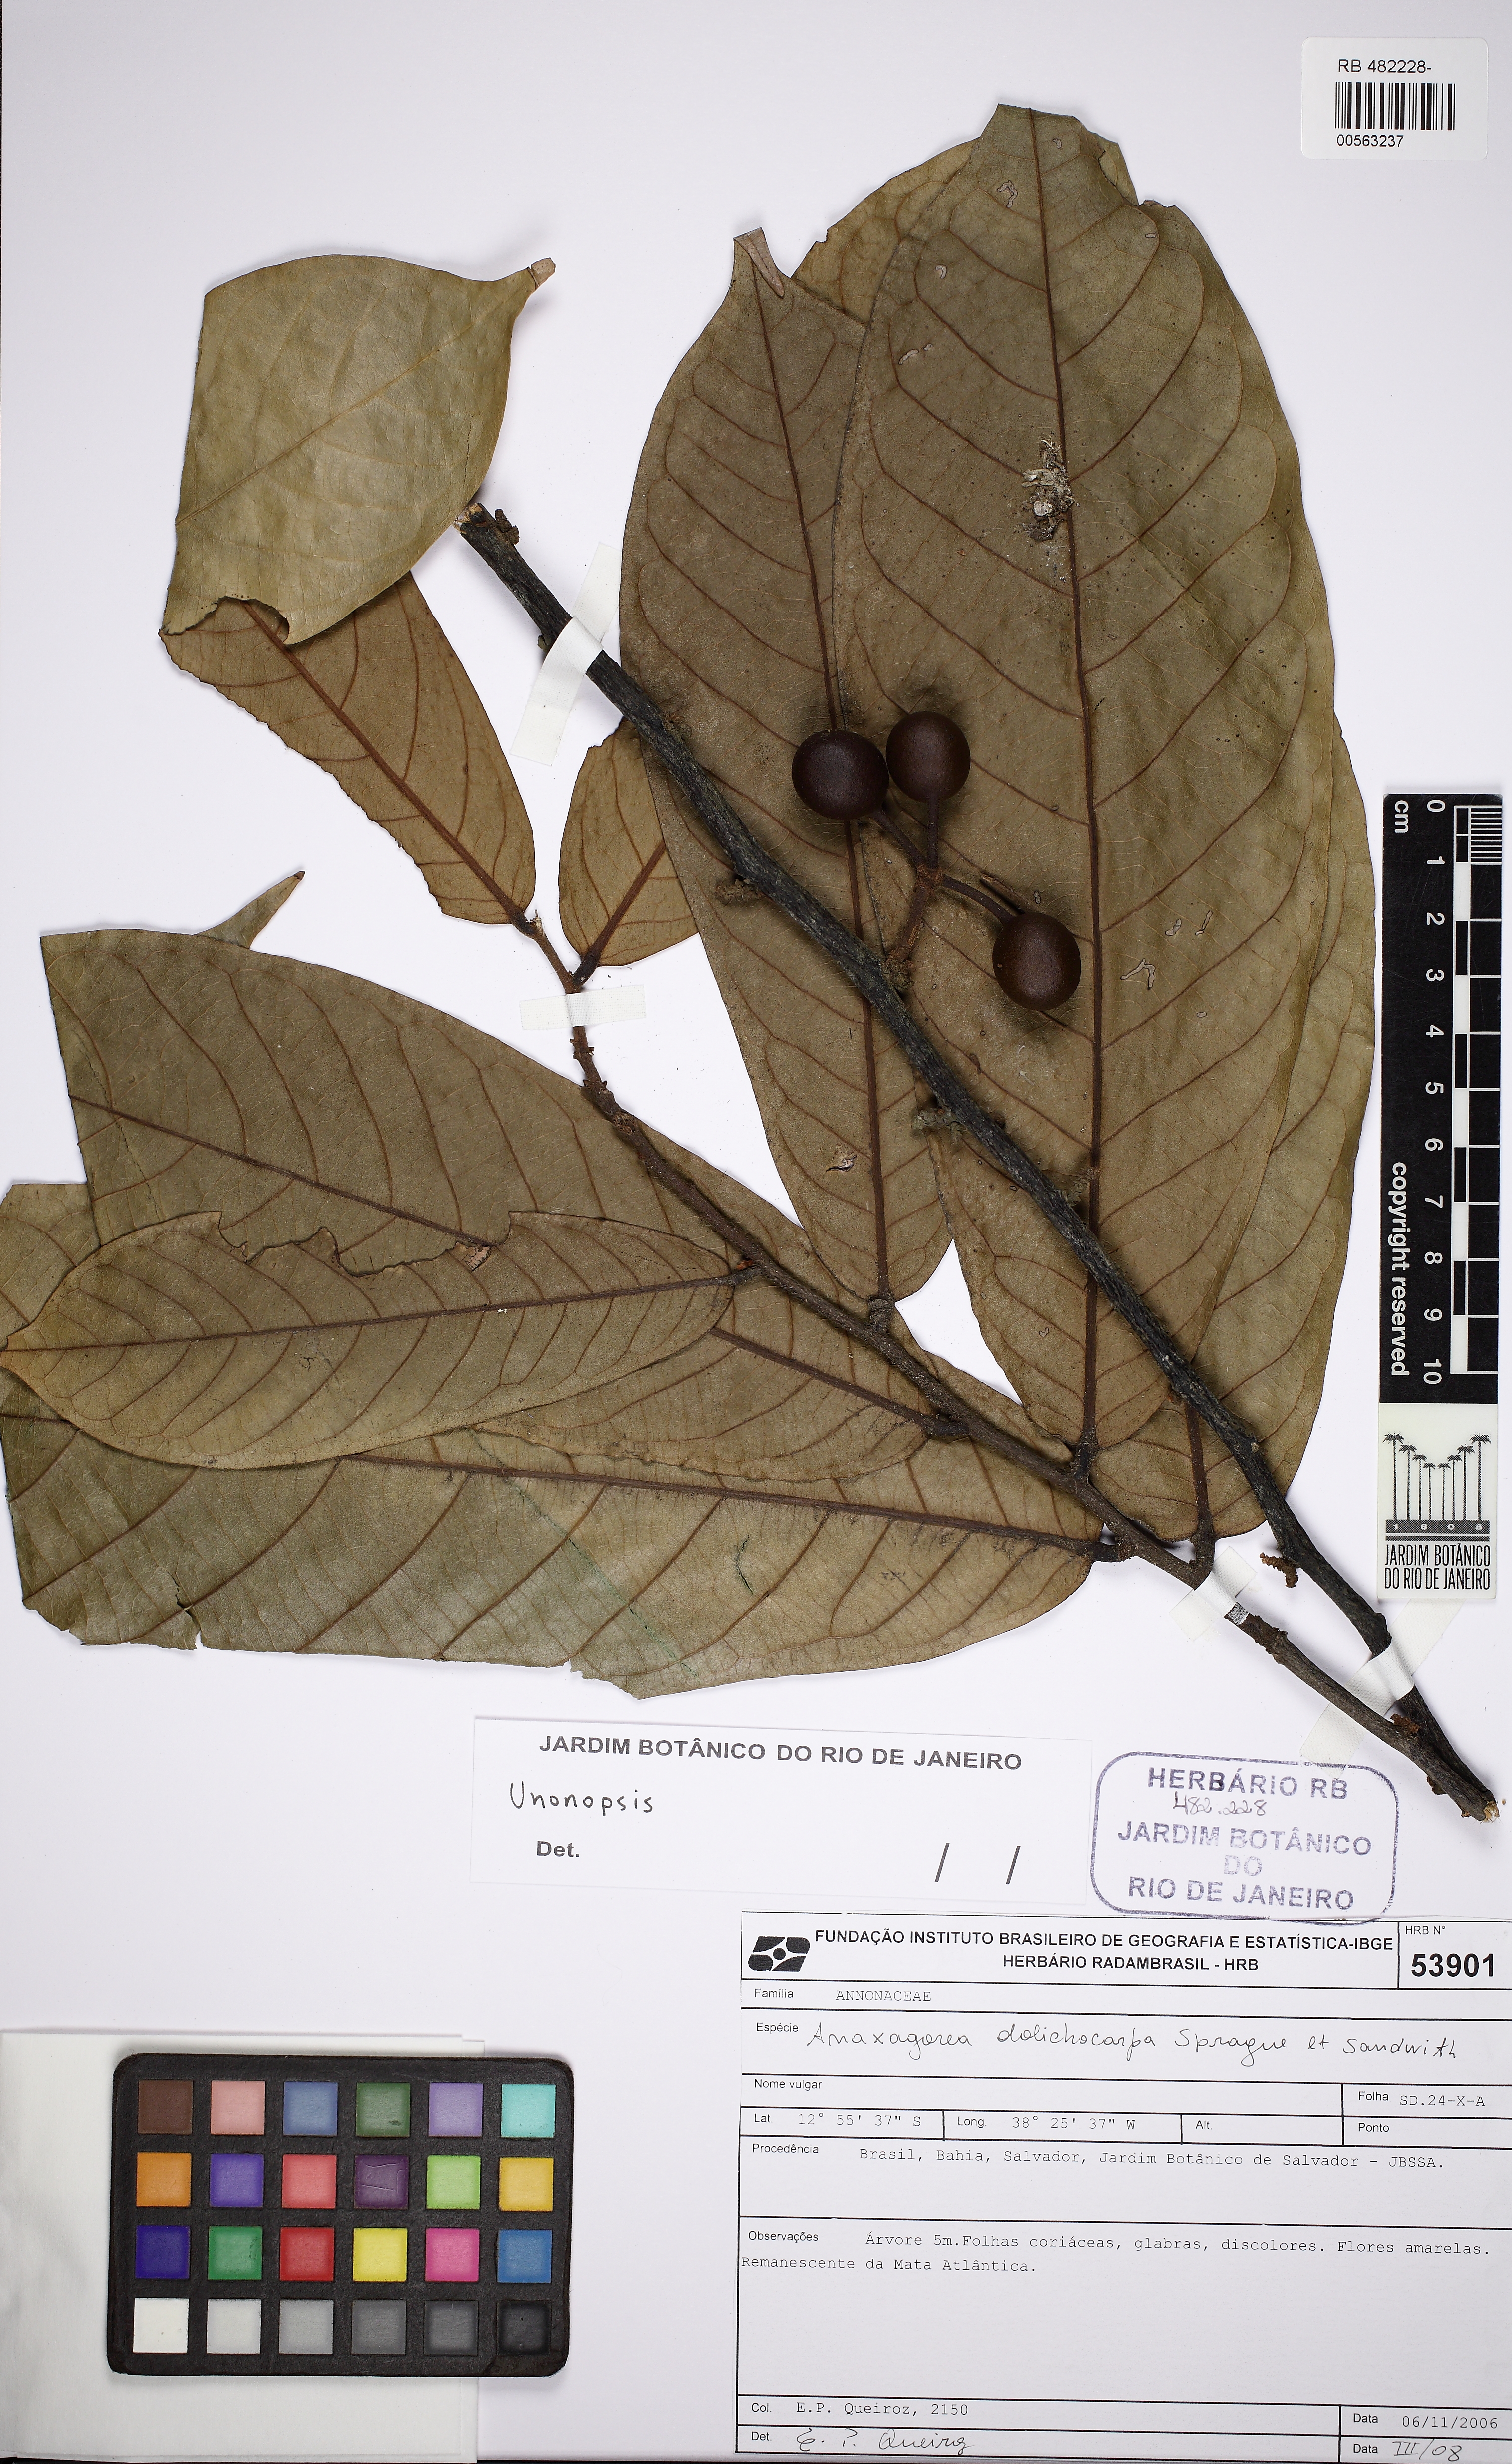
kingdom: Plantae
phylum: Tracheophyta
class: Magnoliopsida
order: Magnoliales
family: Annonaceae
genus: Unonopsis
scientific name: Unonopsis bahiensis
